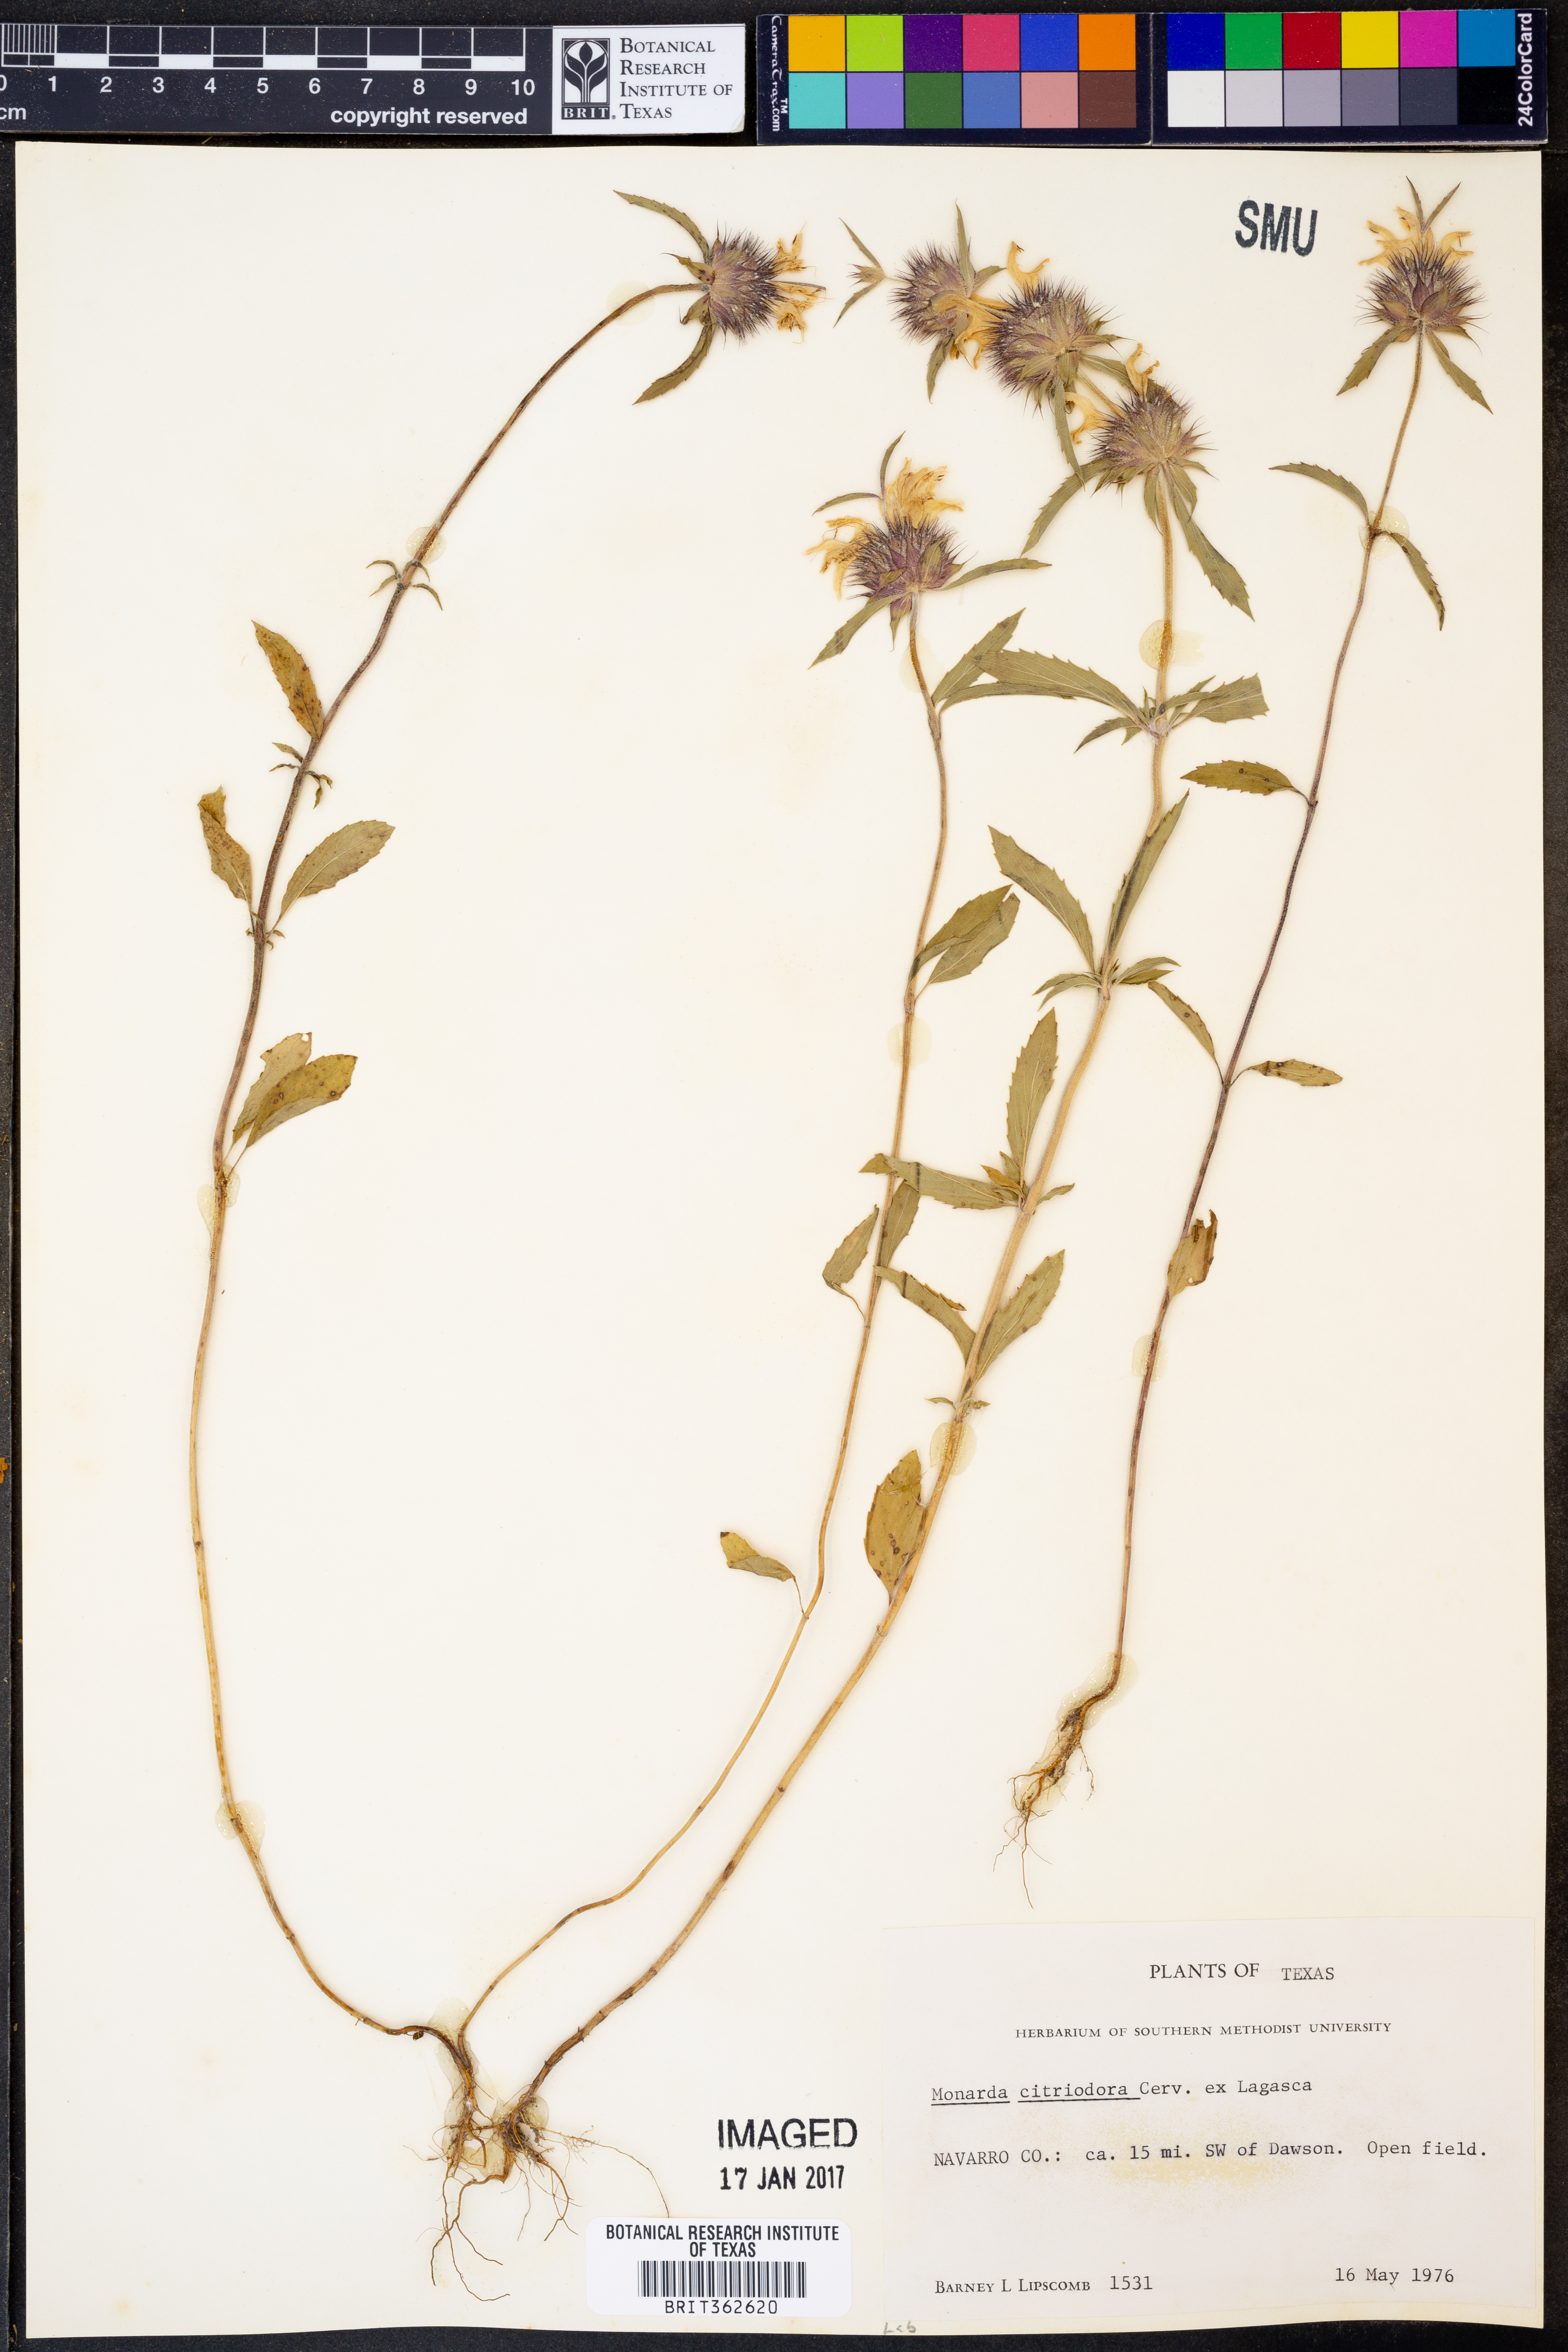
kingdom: Plantae
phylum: Tracheophyta
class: Magnoliopsida
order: Lamiales
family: Lamiaceae
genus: Monarda
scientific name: Monarda citriodora
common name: Lemon beebalm
